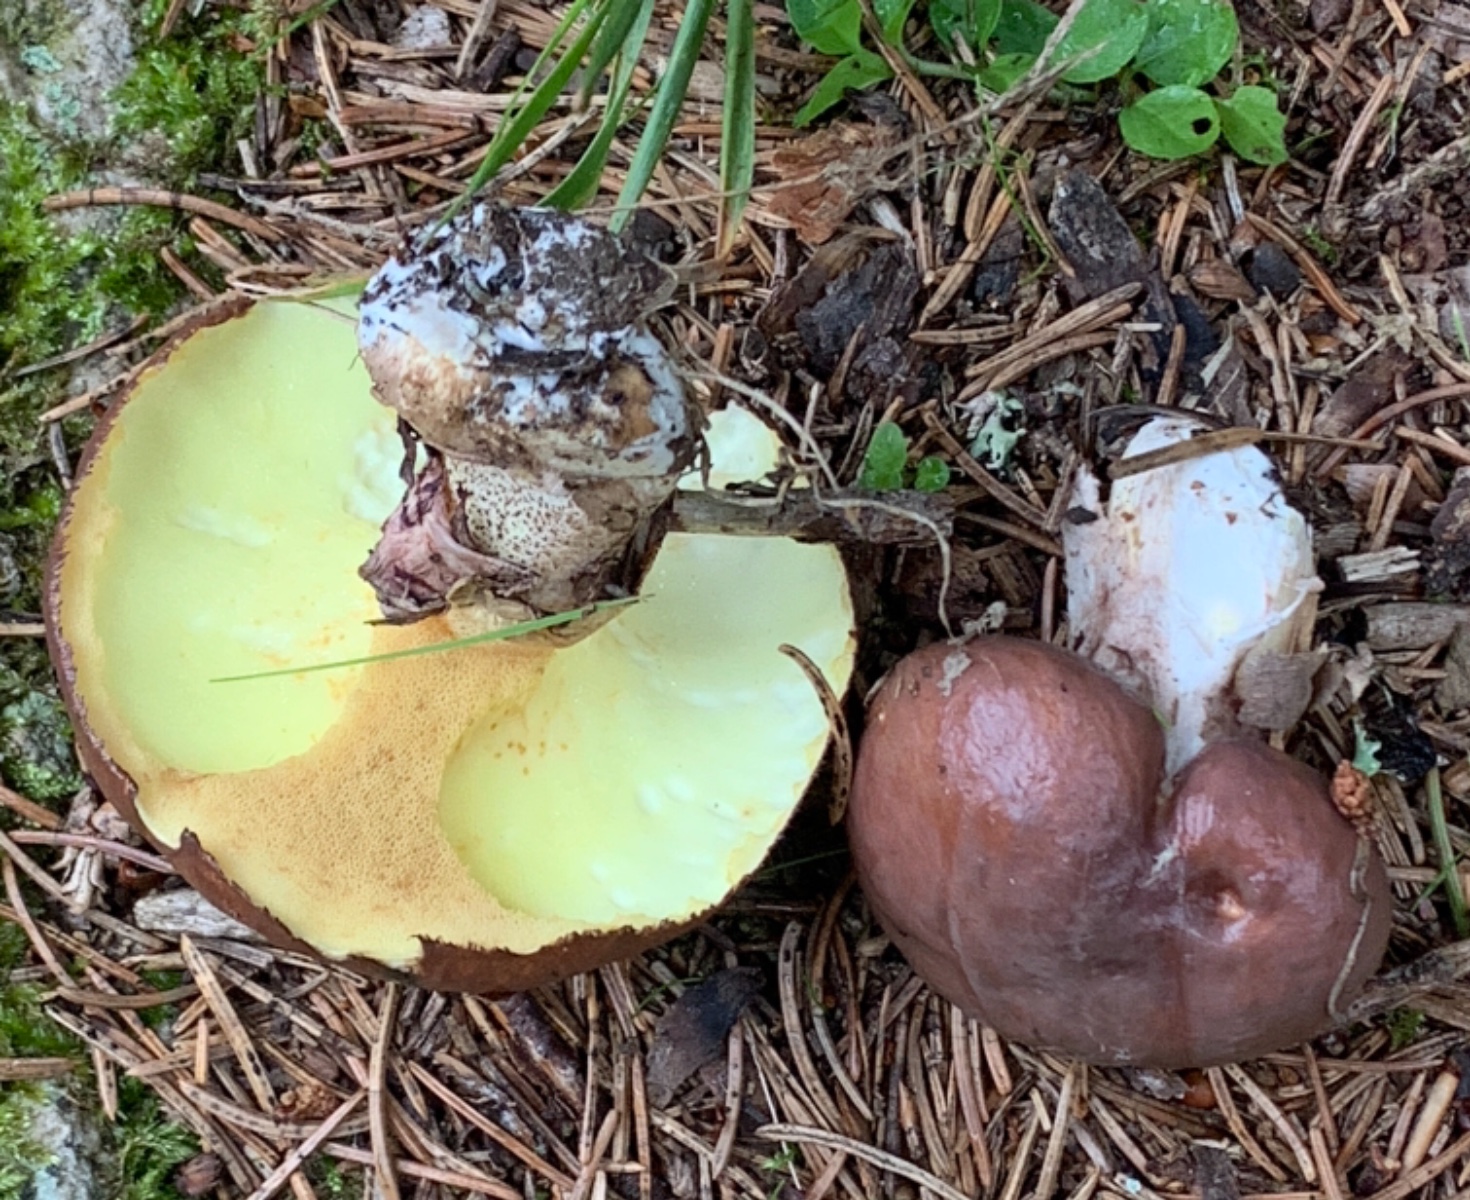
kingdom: Fungi
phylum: Basidiomycota
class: Agaricomycetes
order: Boletales
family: Suillaceae
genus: Suillus
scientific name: Suillus luteus
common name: brungul slimrørhat
